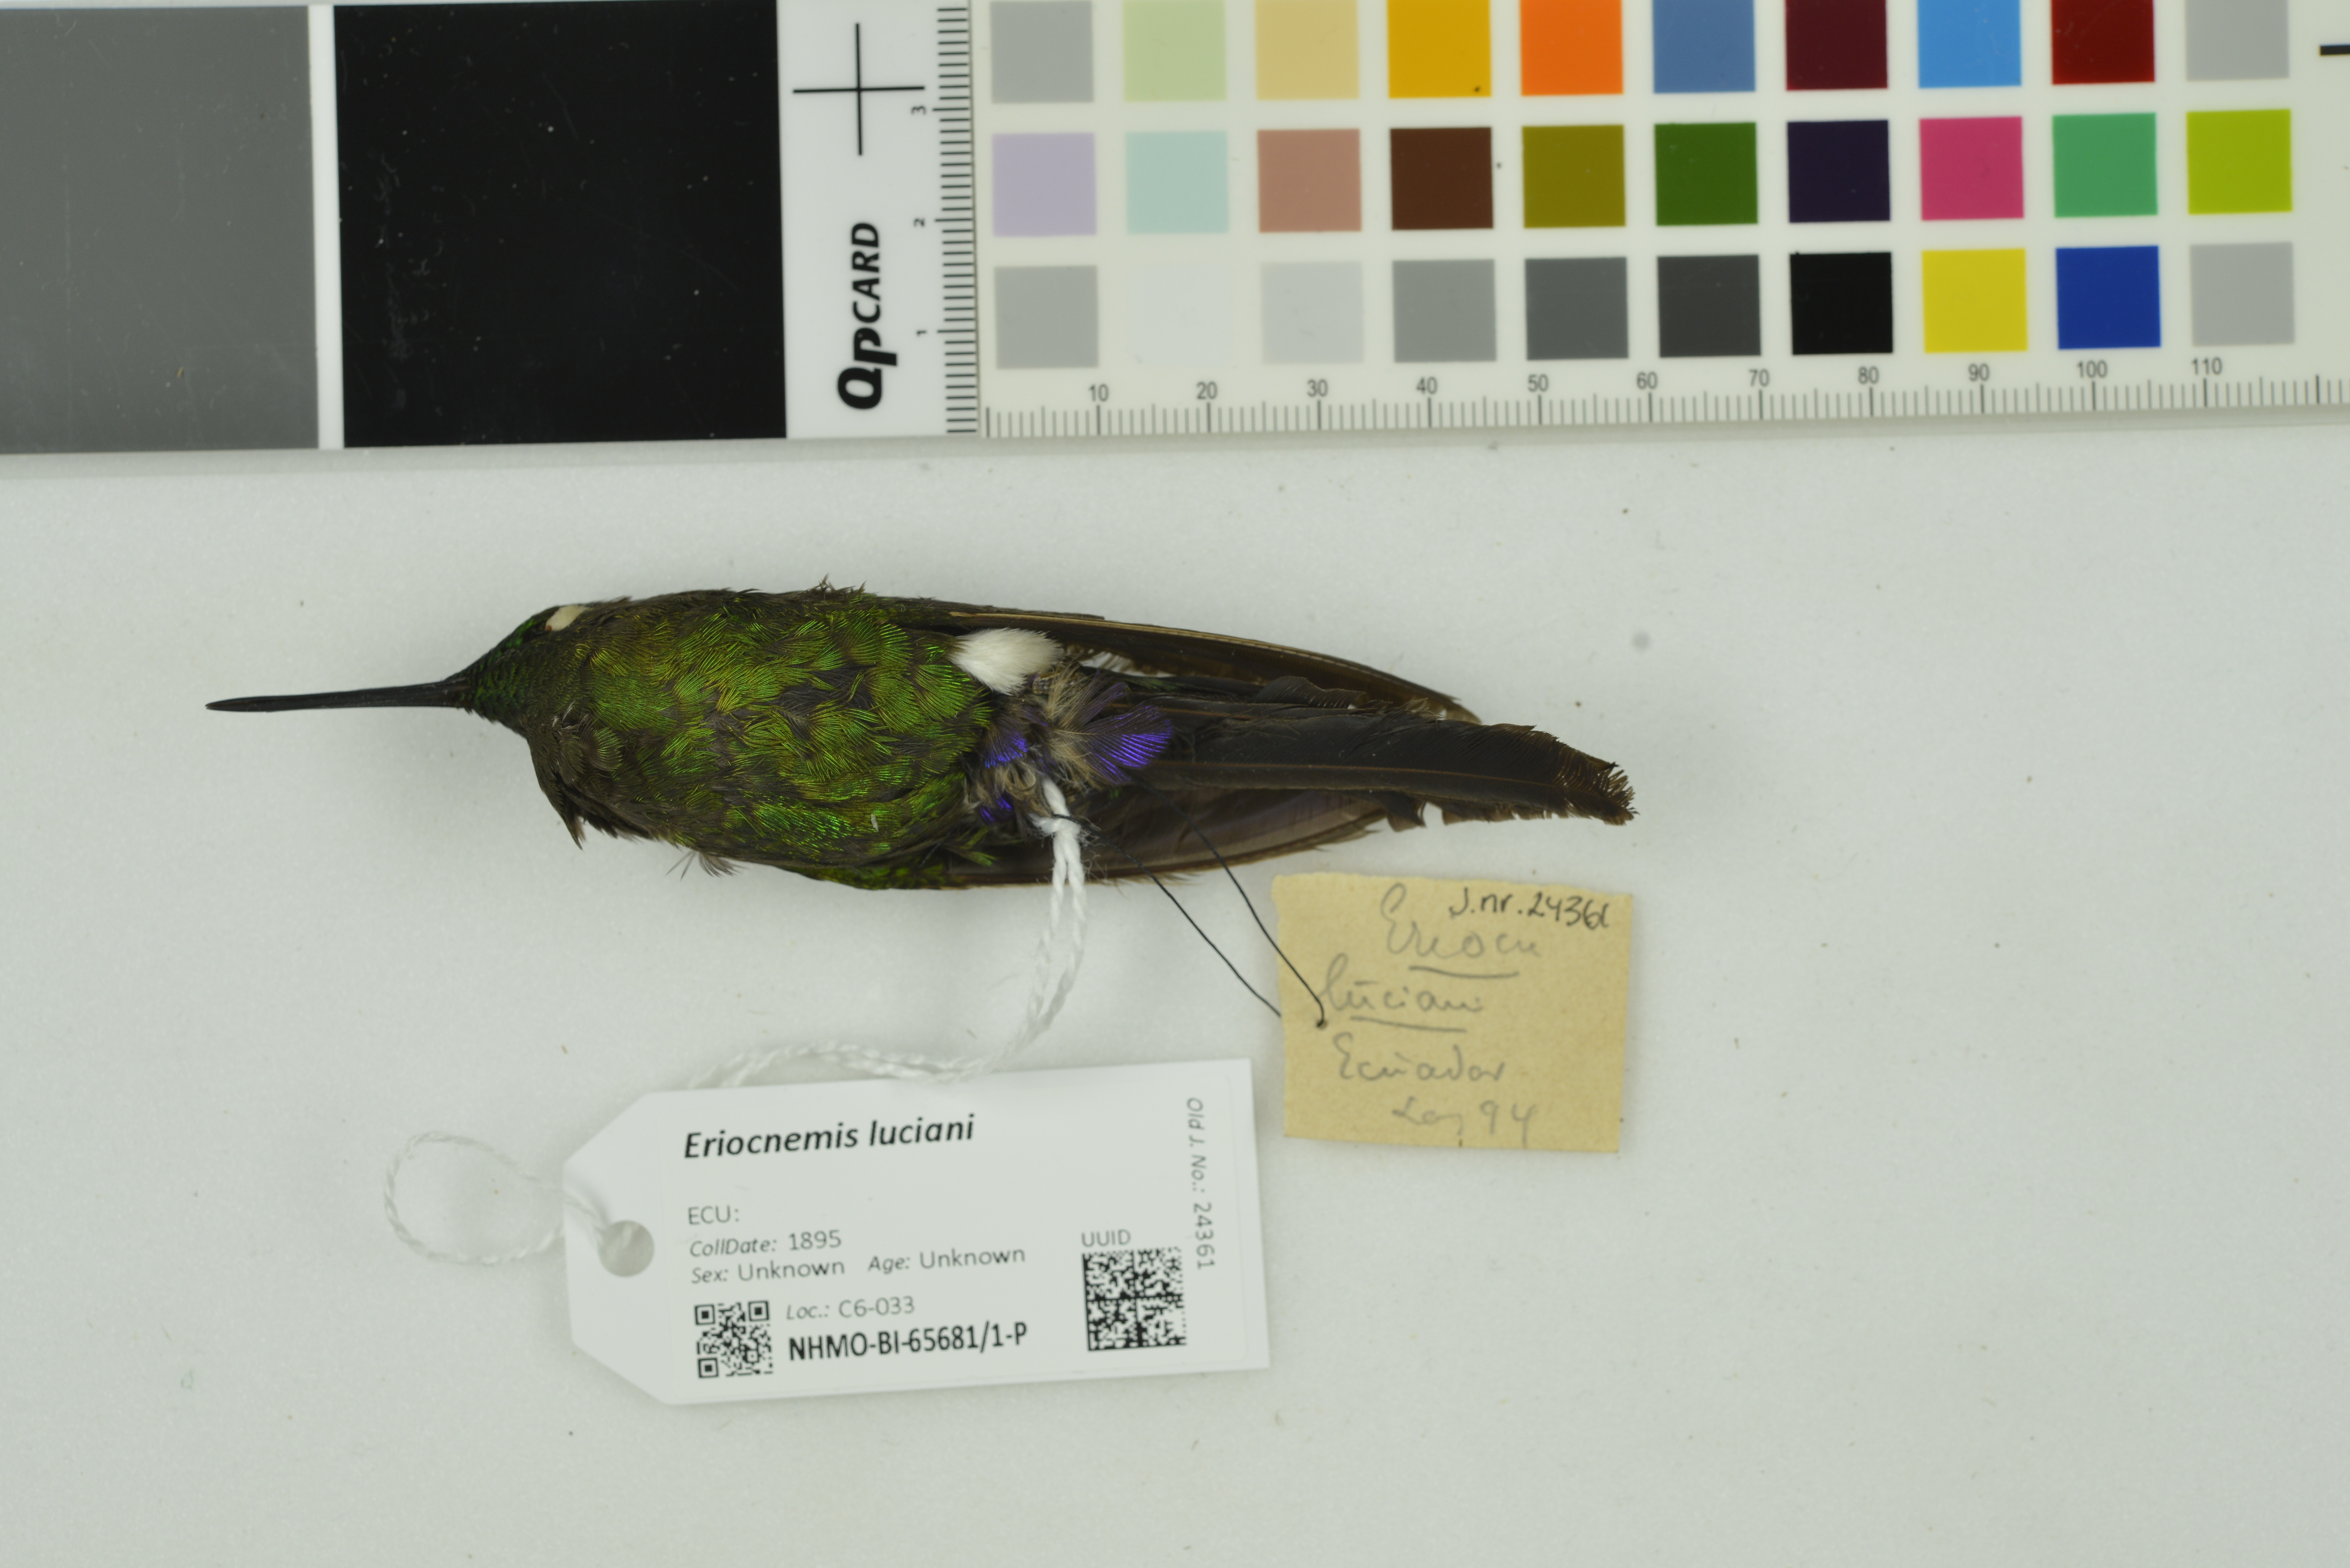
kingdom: Animalia
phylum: Chordata
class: Aves
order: Apodiformes
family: Trochilidae
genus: Eriocnemis
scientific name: Eriocnemis luciani
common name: Sapphire-vented puffleg
